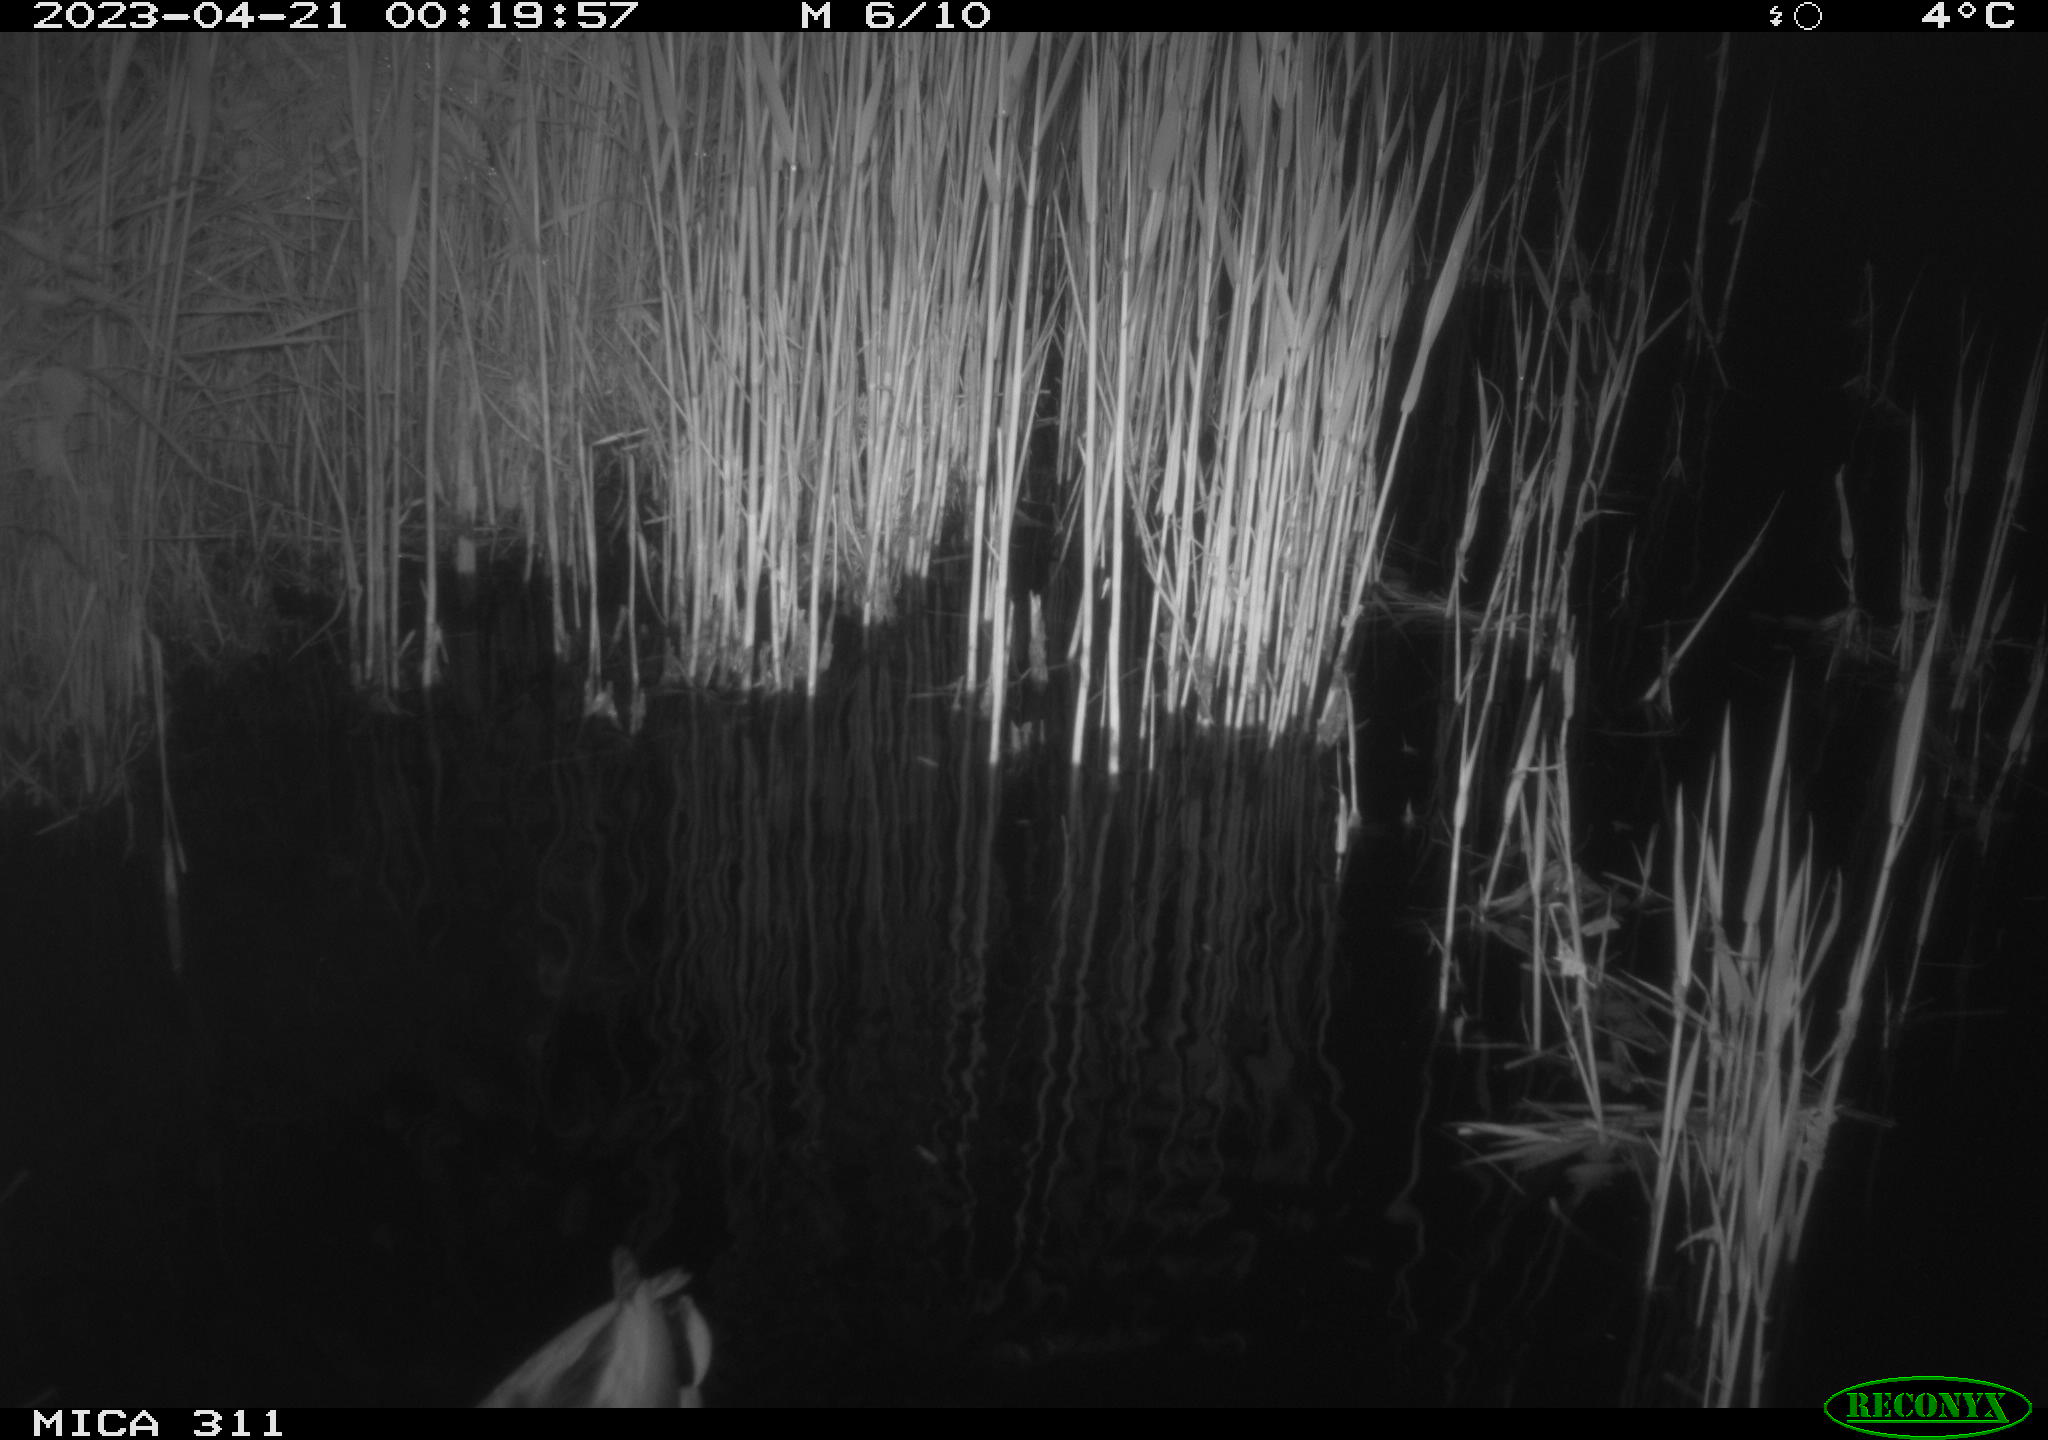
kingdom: Animalia
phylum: Chordata
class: Aves
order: Anseriformes
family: Anatidae
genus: Anas
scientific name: Anas
